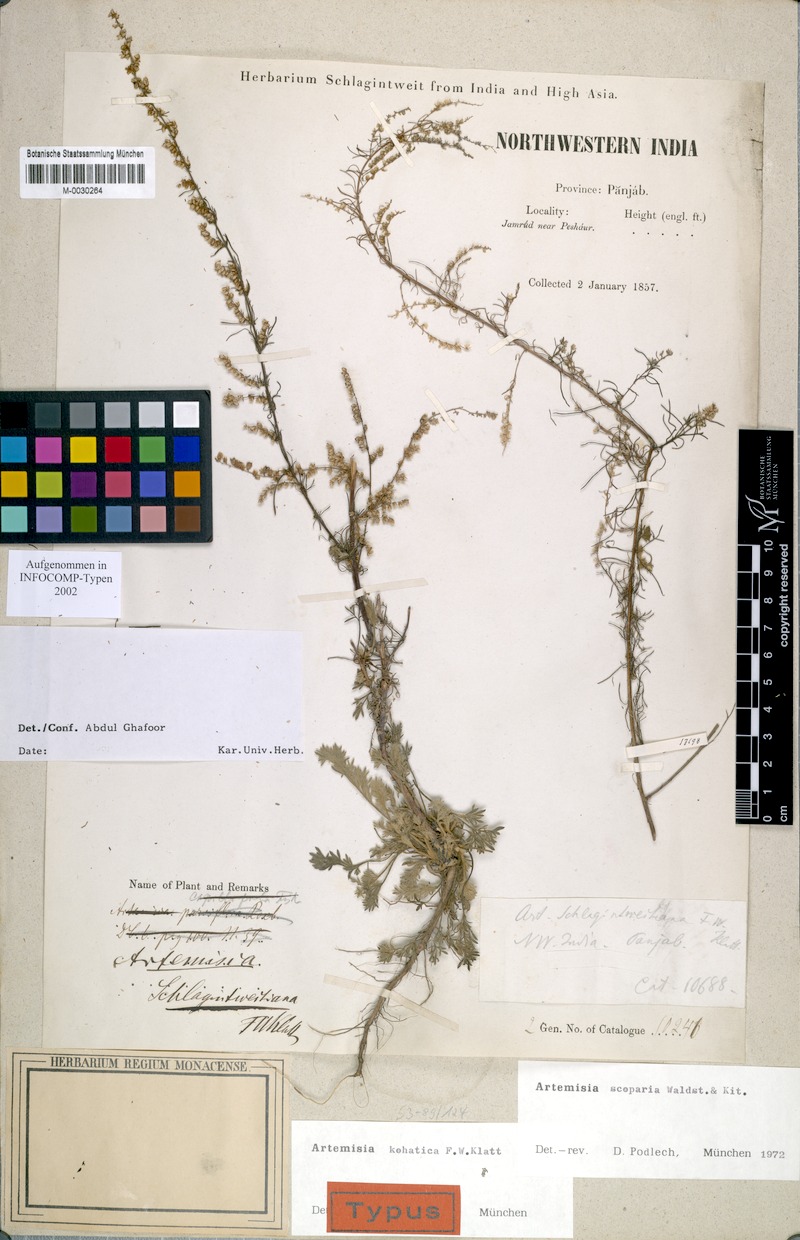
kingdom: Plantae
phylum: Tracheophyta
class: Magnoliopsida
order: Asterales
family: Asteraceae
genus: Artemisia
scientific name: Artemisia scoparia
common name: Redstem wormwood
